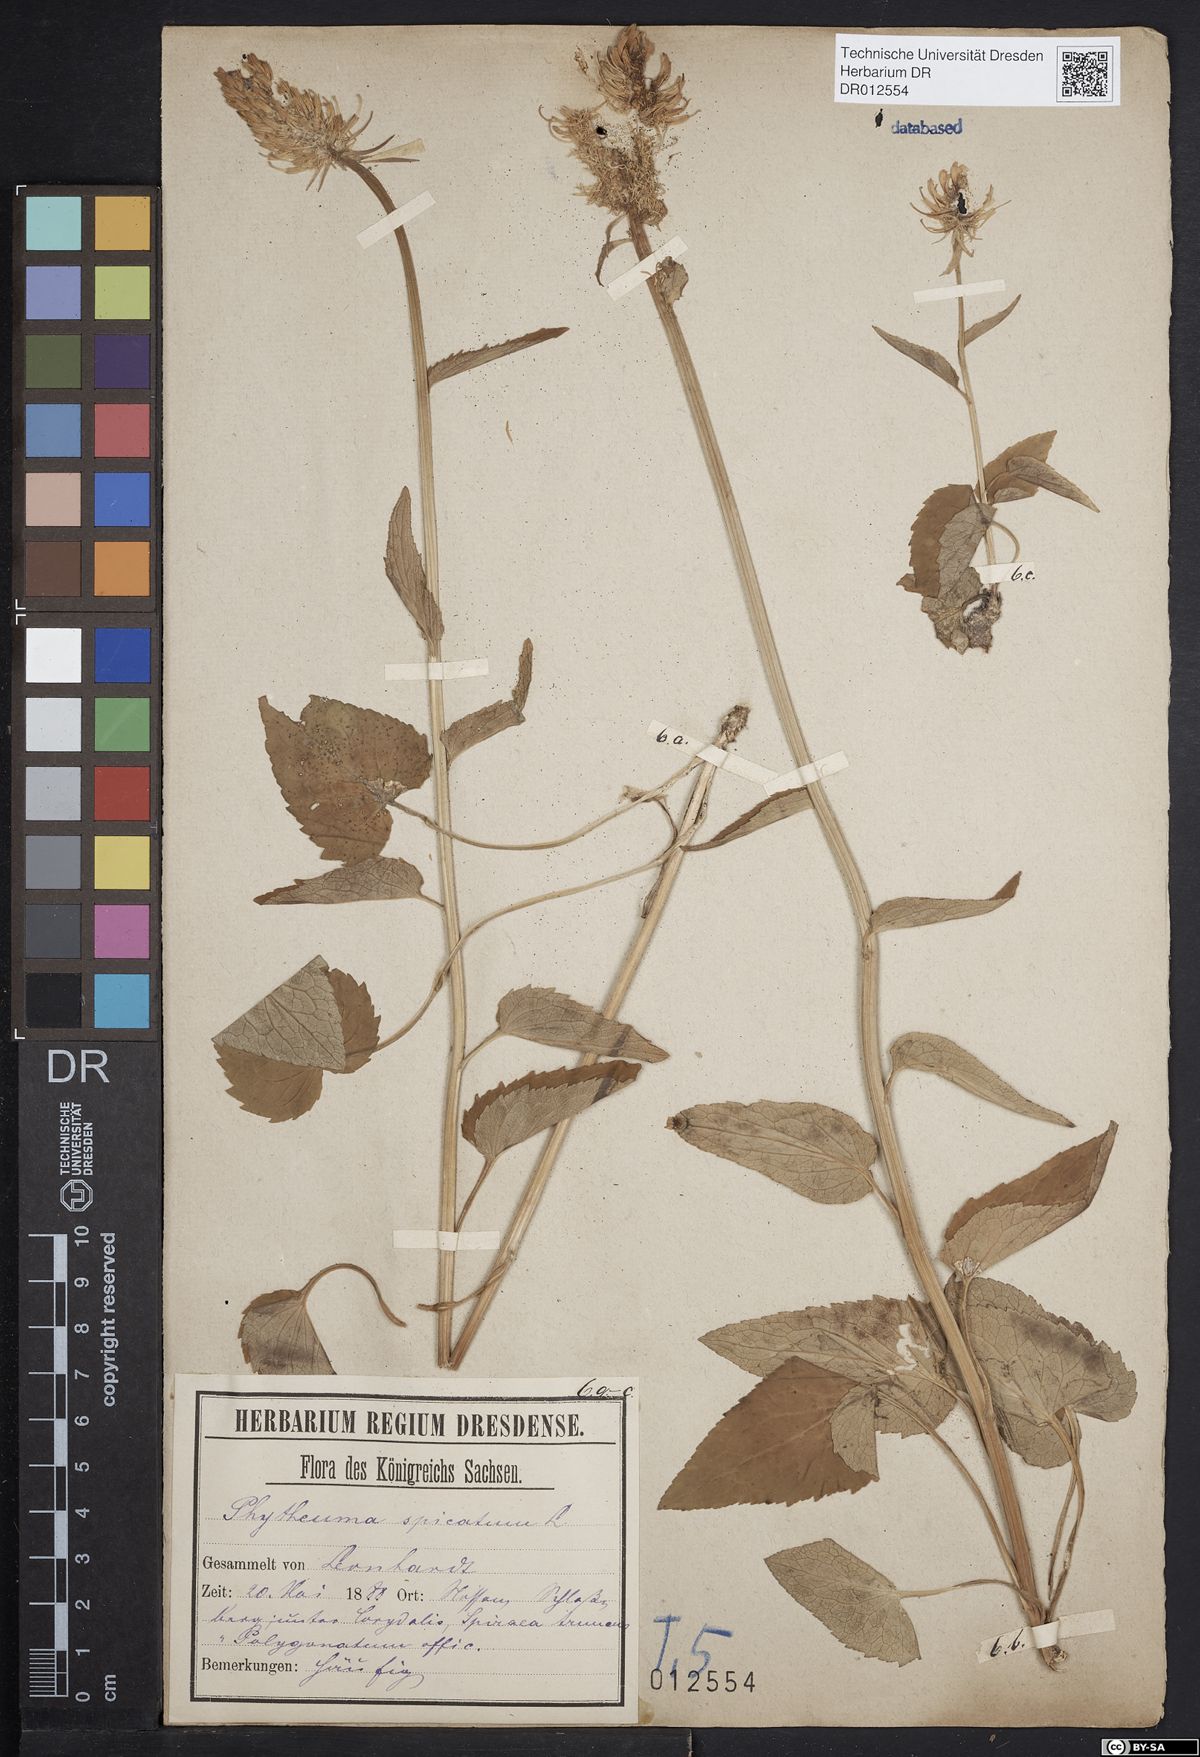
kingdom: Plantae
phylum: Tracheophyta
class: Magnoliopsida
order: Asterales
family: Campanulaceae
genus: Phyteuma
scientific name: Phyteuma spicatum
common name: Spiked rampion
